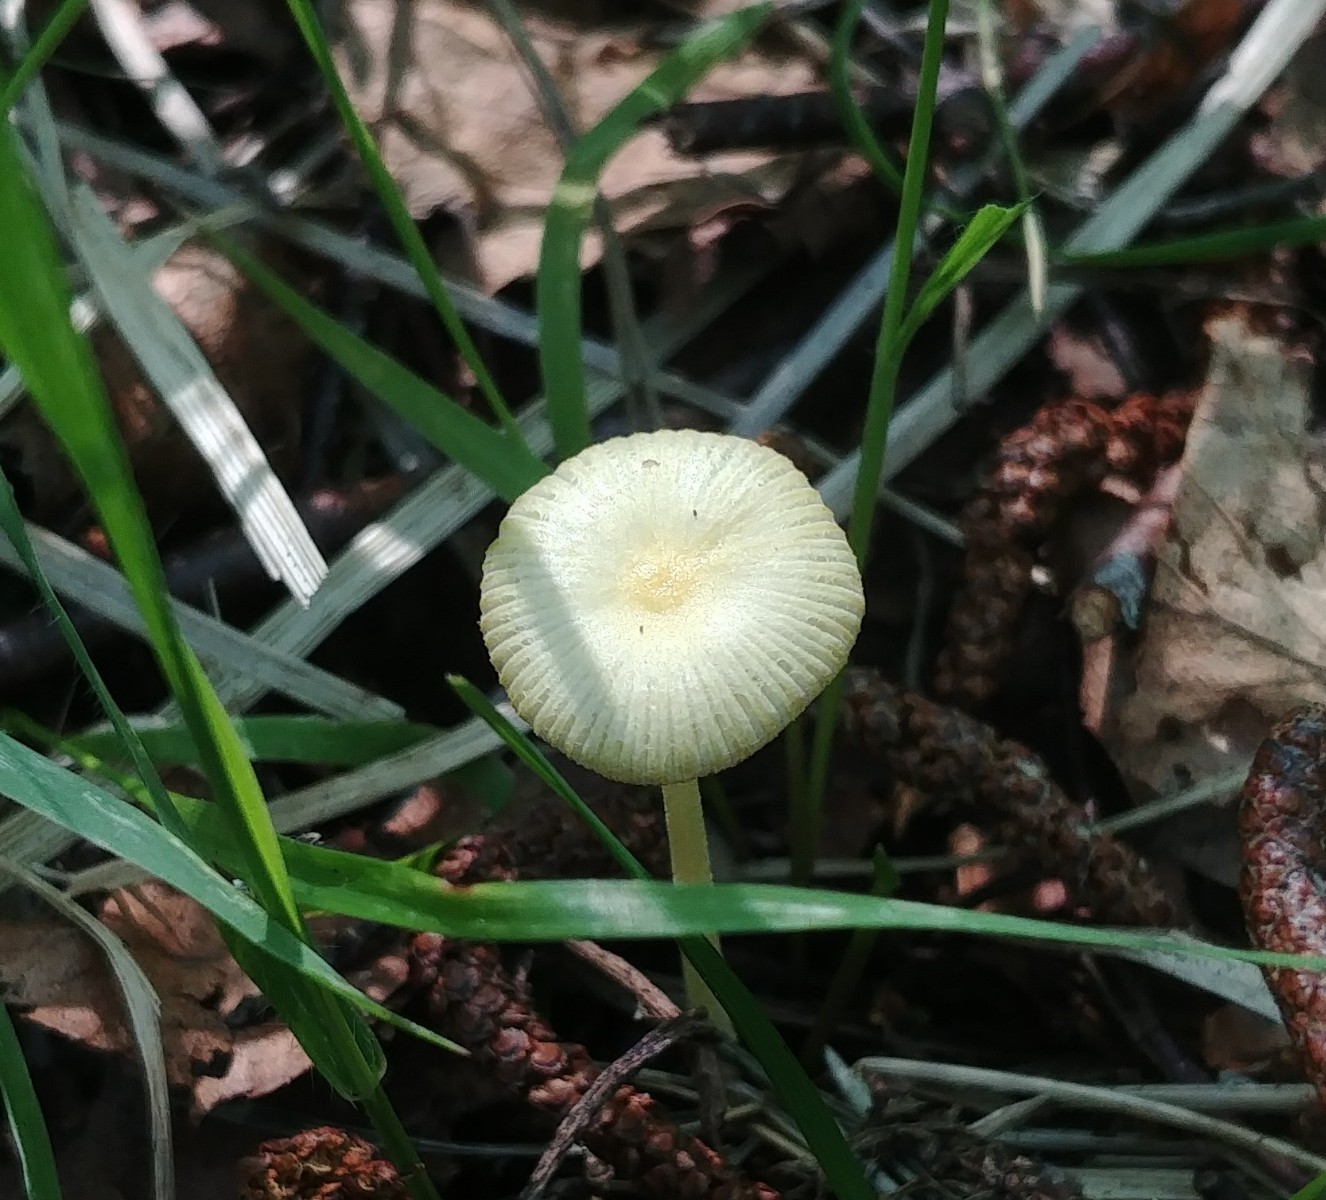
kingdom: Fungi
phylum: Basidiomycota
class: Agaricomycetes
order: Agaricales
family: Bolbitiaceae
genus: Bolbitius
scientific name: Bolbitius titubans
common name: almindelig gulhat
